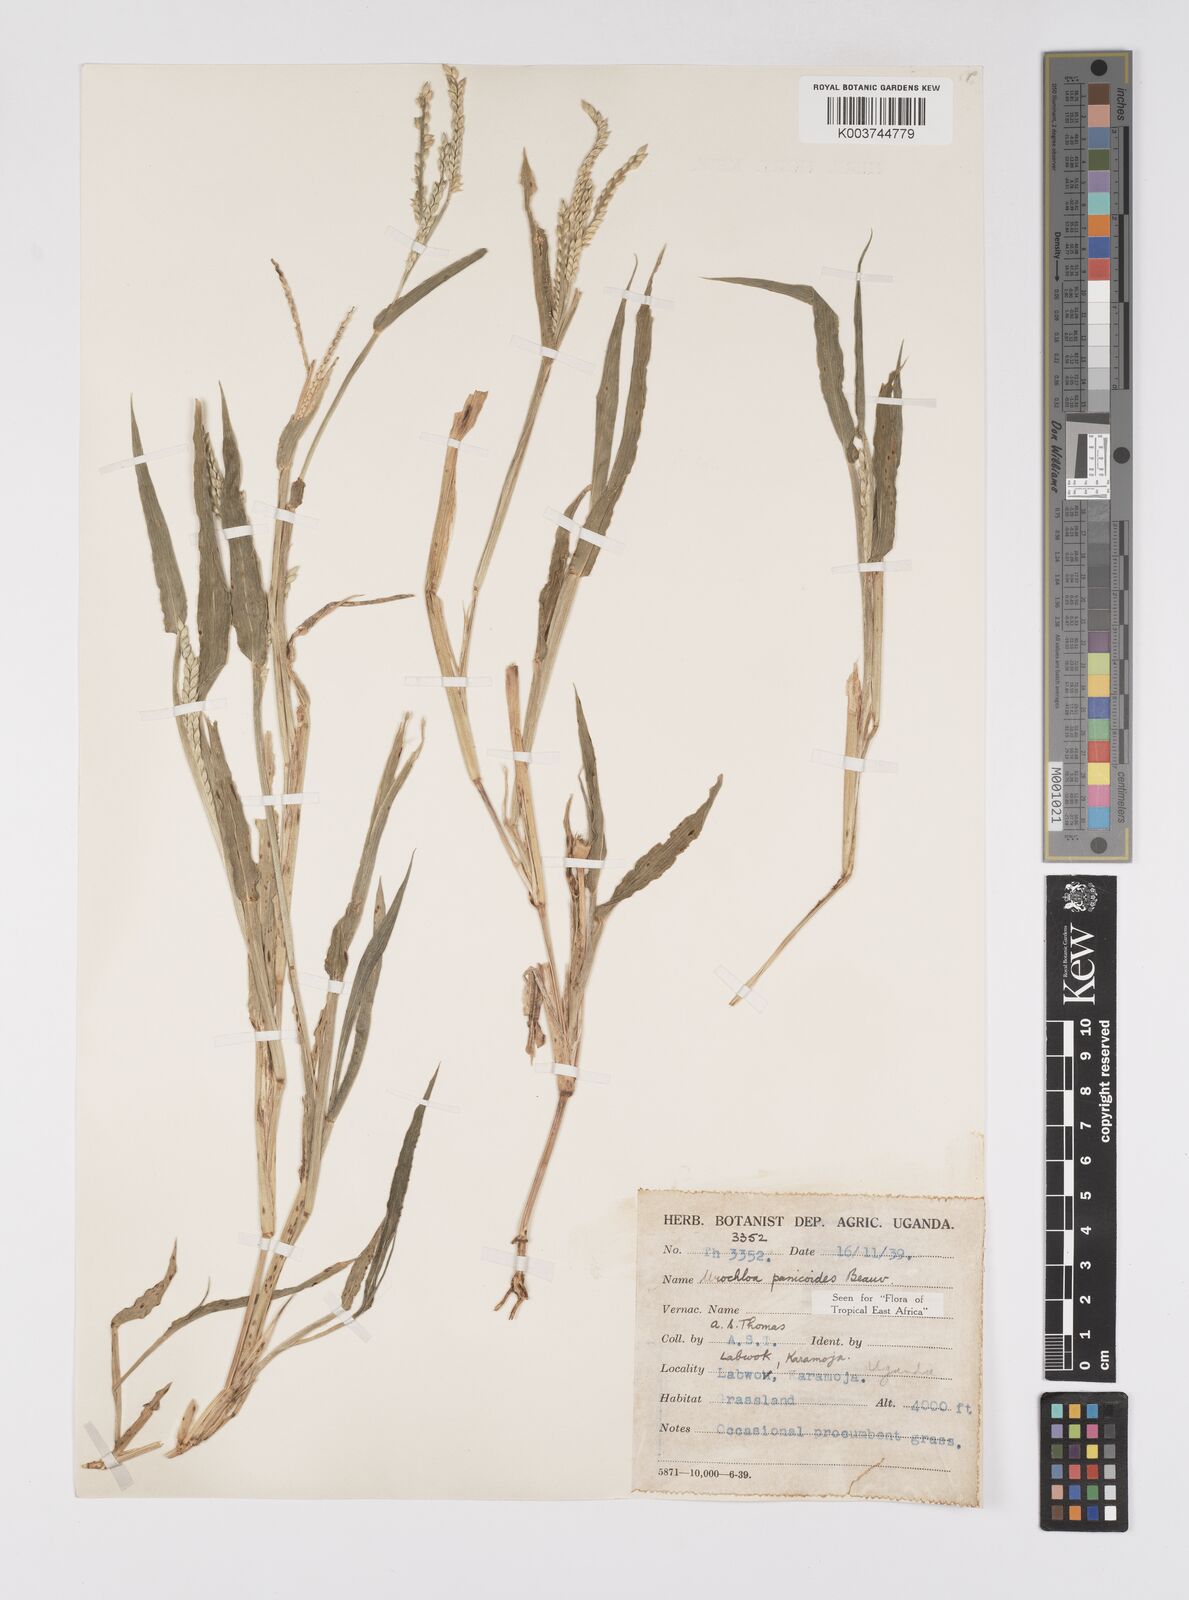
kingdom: Plantae
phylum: Tracheophyta
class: Liliopsida
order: Poales
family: Poaceae
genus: Urochloa
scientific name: Urochloa panicoides
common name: Sharp-flowered signal-grass
